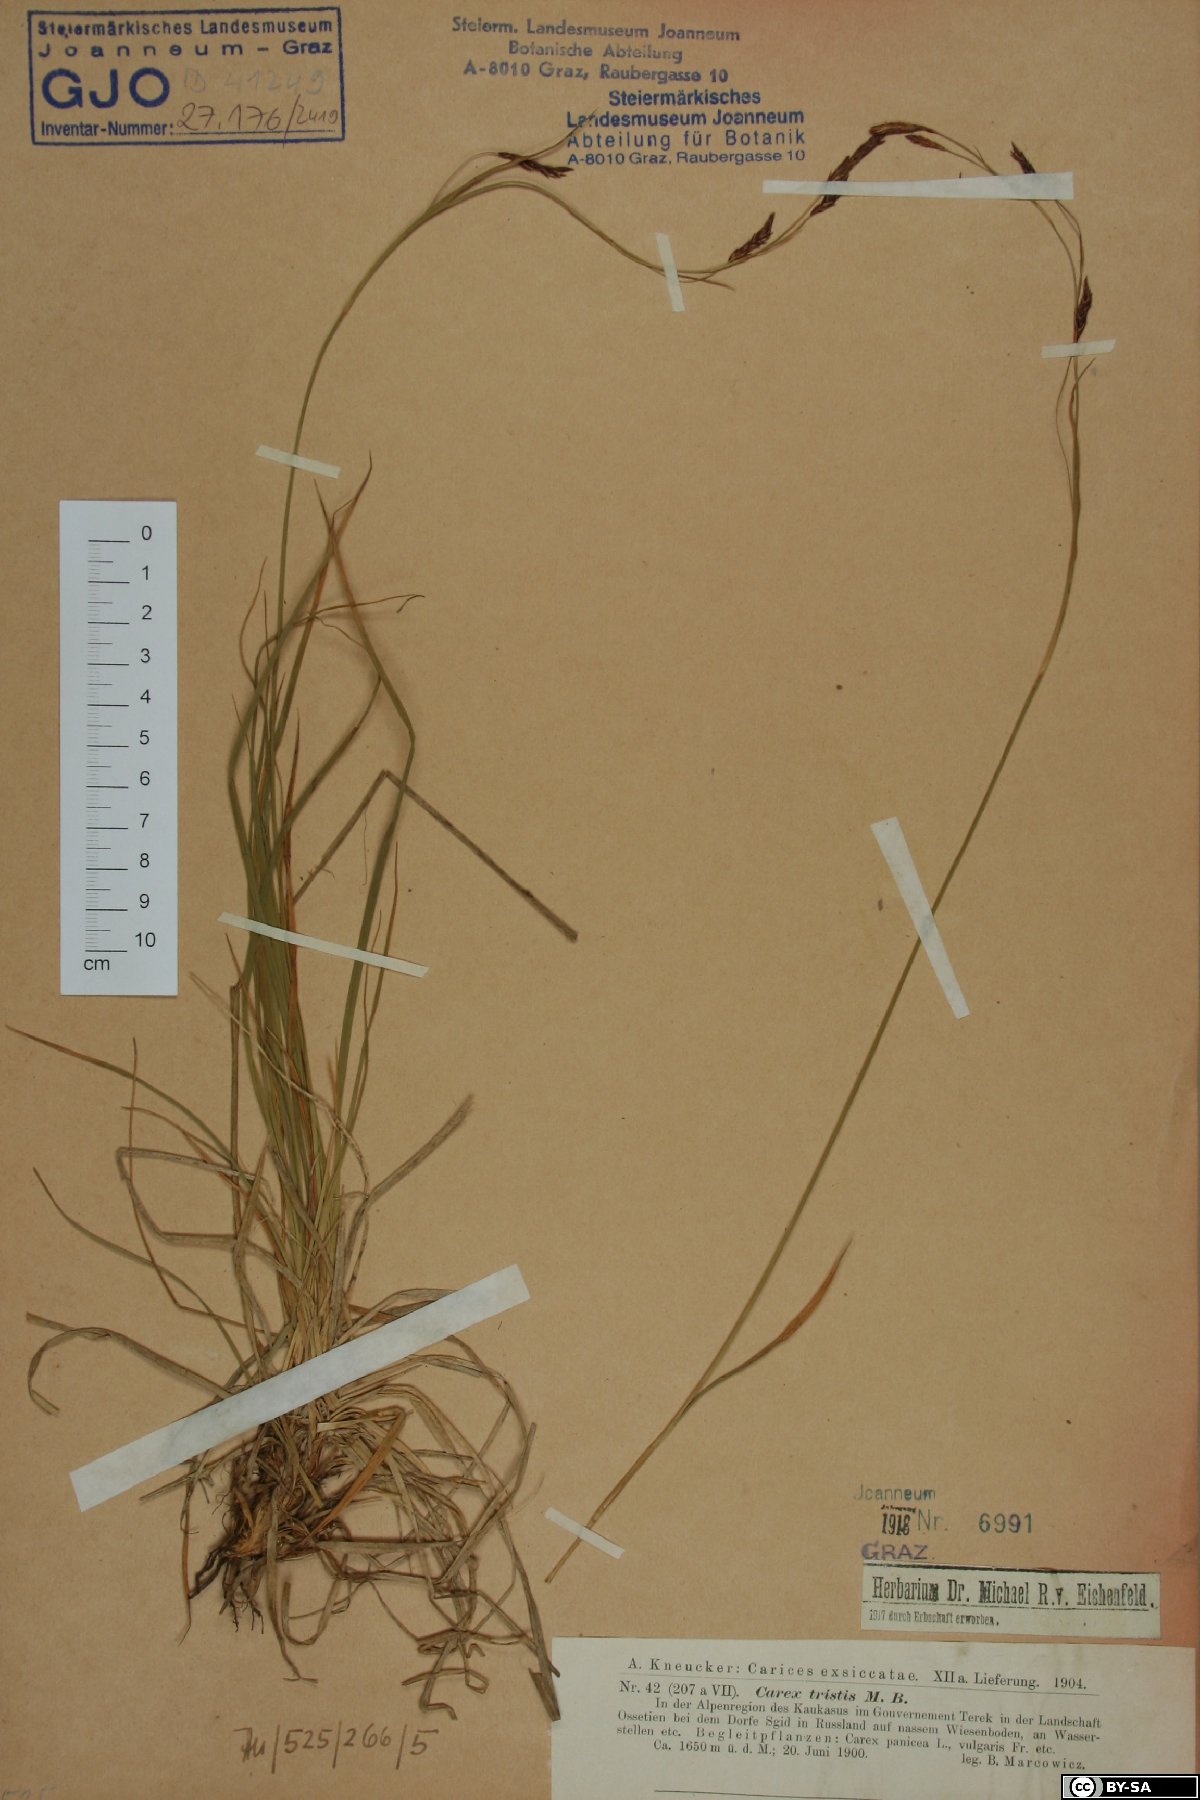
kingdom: Plantae
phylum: Tracheophyta
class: Liliopsida
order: Poales
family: Cyperaceae
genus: Carex
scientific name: Carex tristis
